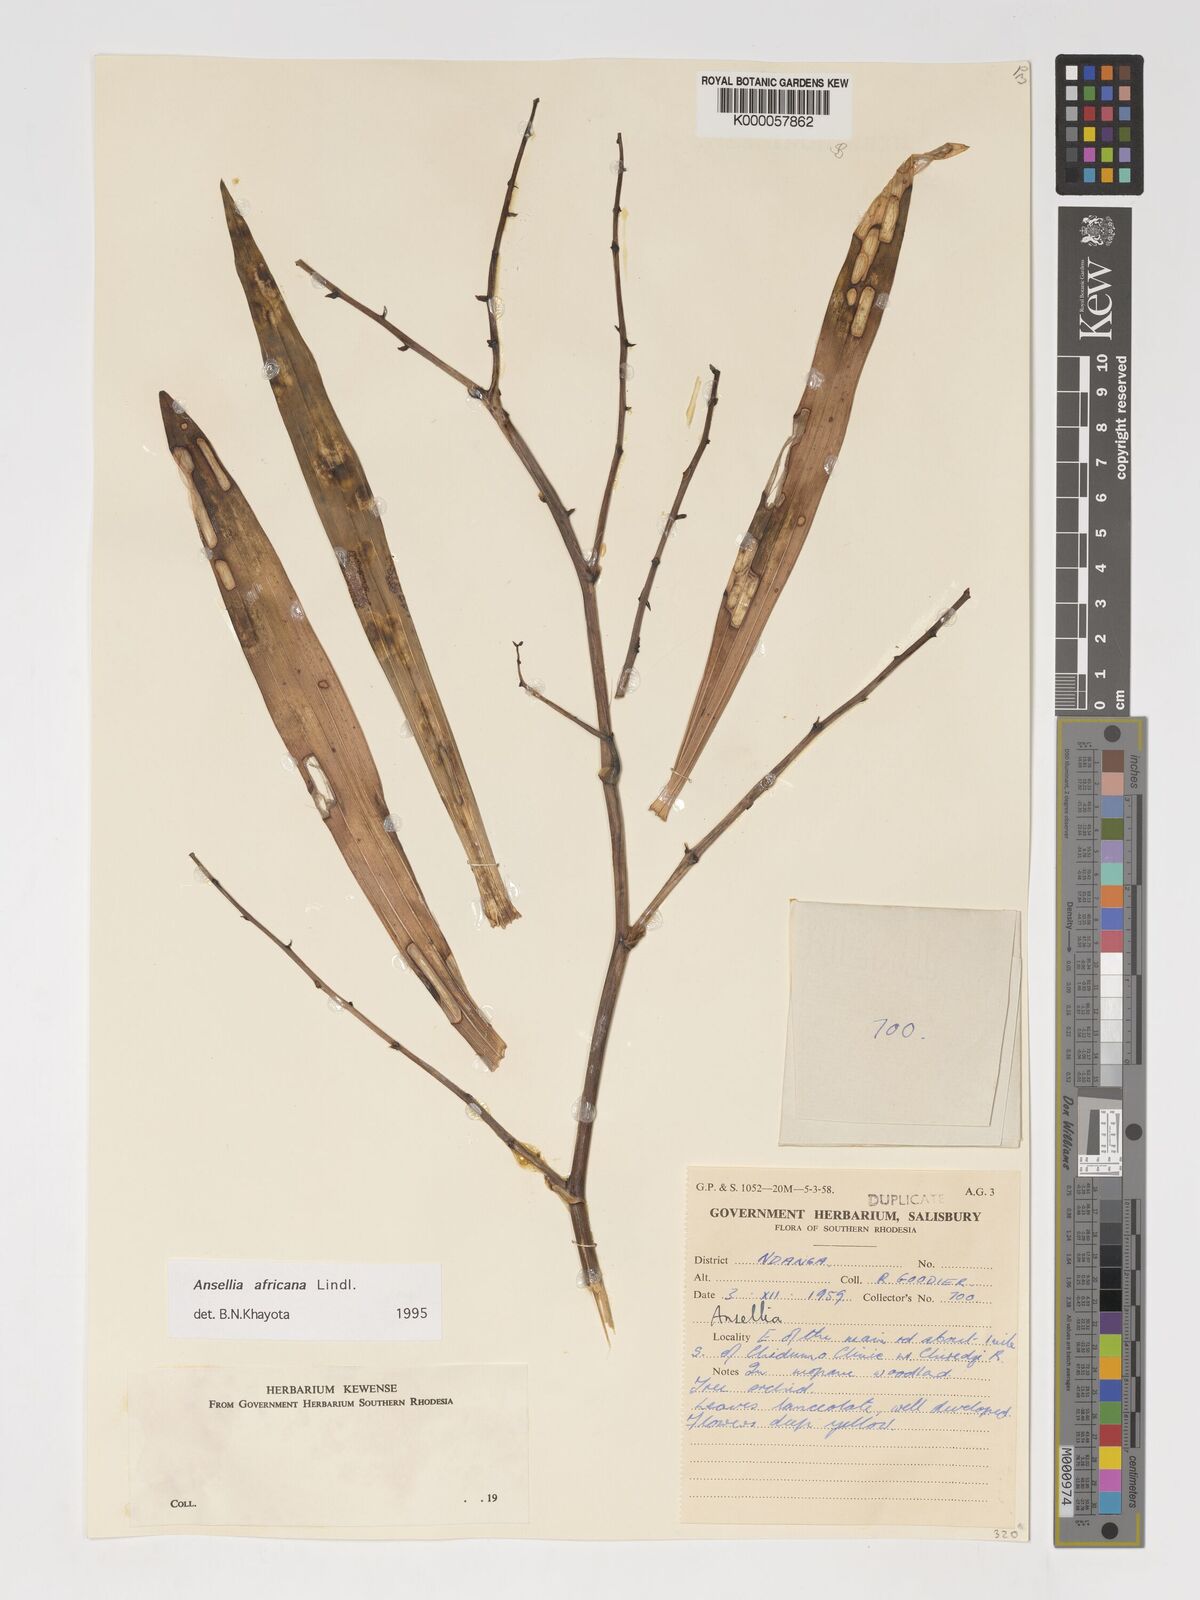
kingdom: Plantae
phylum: Tracheophyta
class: Liliopsida
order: Asparagales
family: Orchidaceae
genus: Ansellia
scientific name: Ansellia africana
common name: African ansellia
